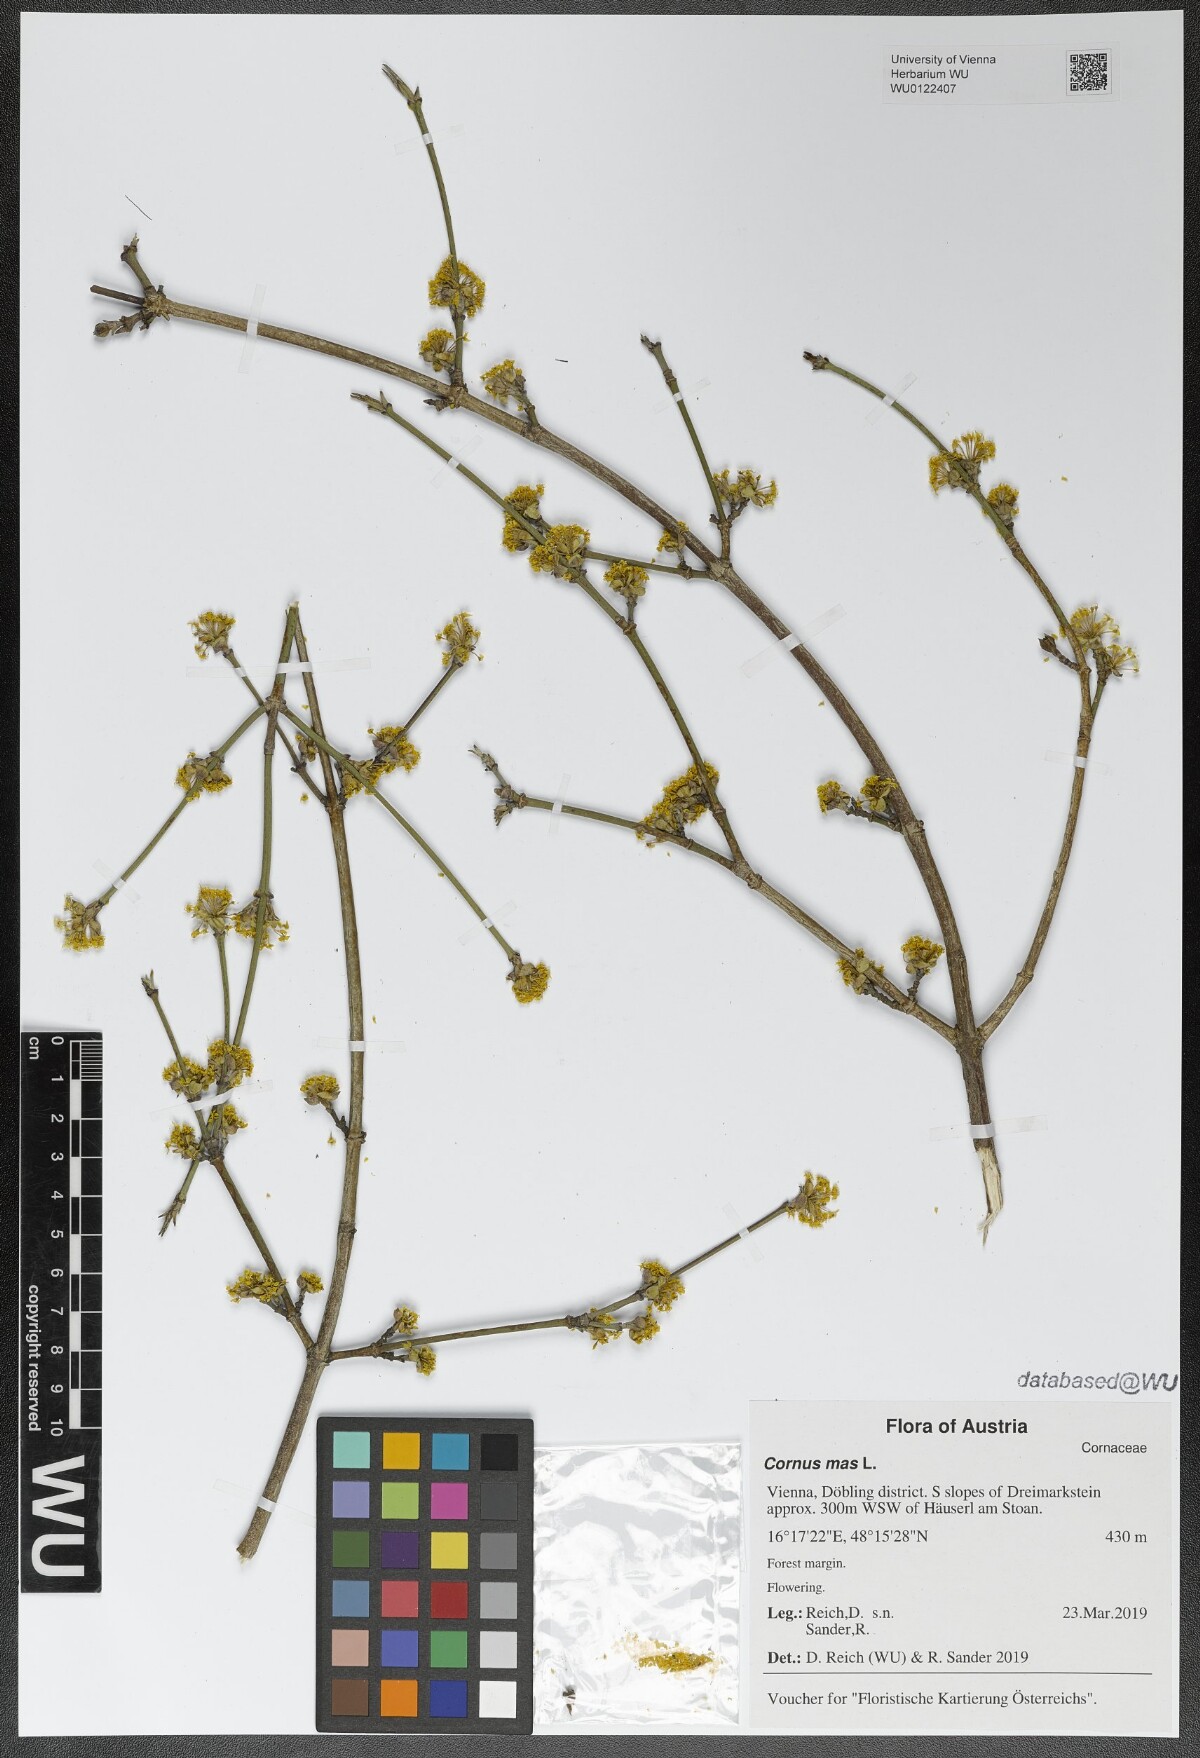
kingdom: Plantae
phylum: Tracheophyta
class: Magnoliopsida
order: Cornales
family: Cornaceae
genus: Cornus
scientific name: Cornus mas
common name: Cornelian-cherry
